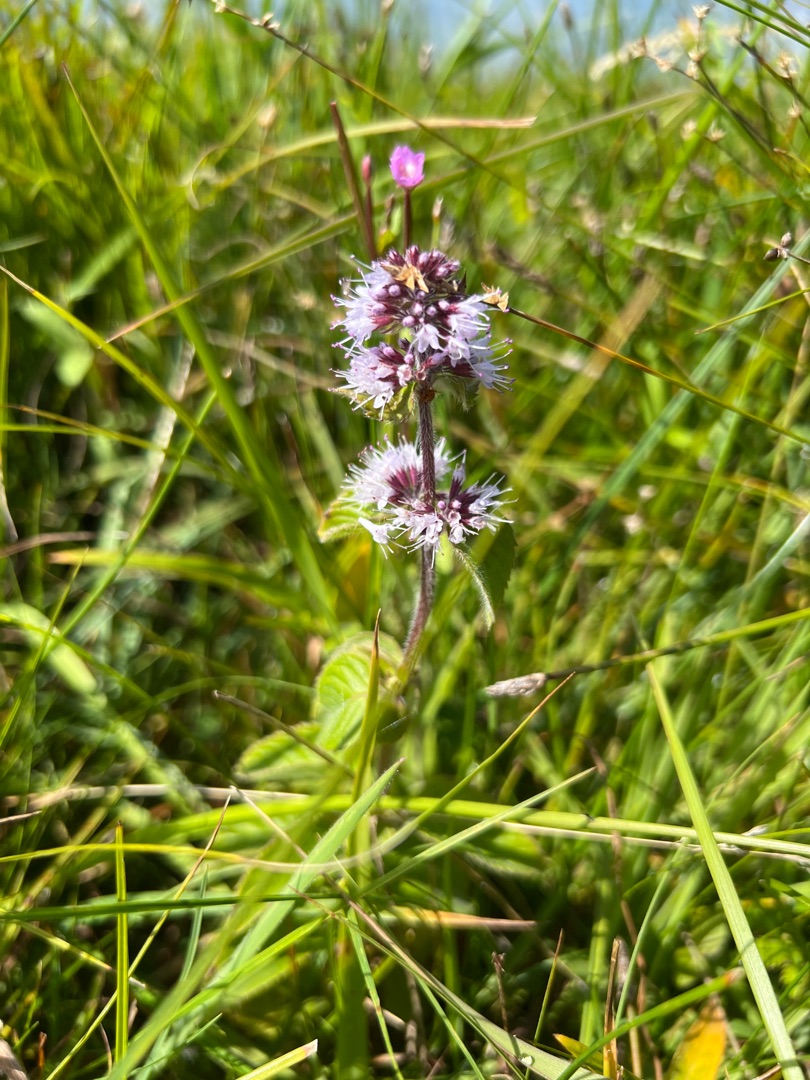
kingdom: Plantae
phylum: Tracheophyta
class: Magnoliopsida
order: Lamiales
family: Lamiaceae
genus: Mentha
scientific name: Mentha aquatica
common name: Vand-mynte
